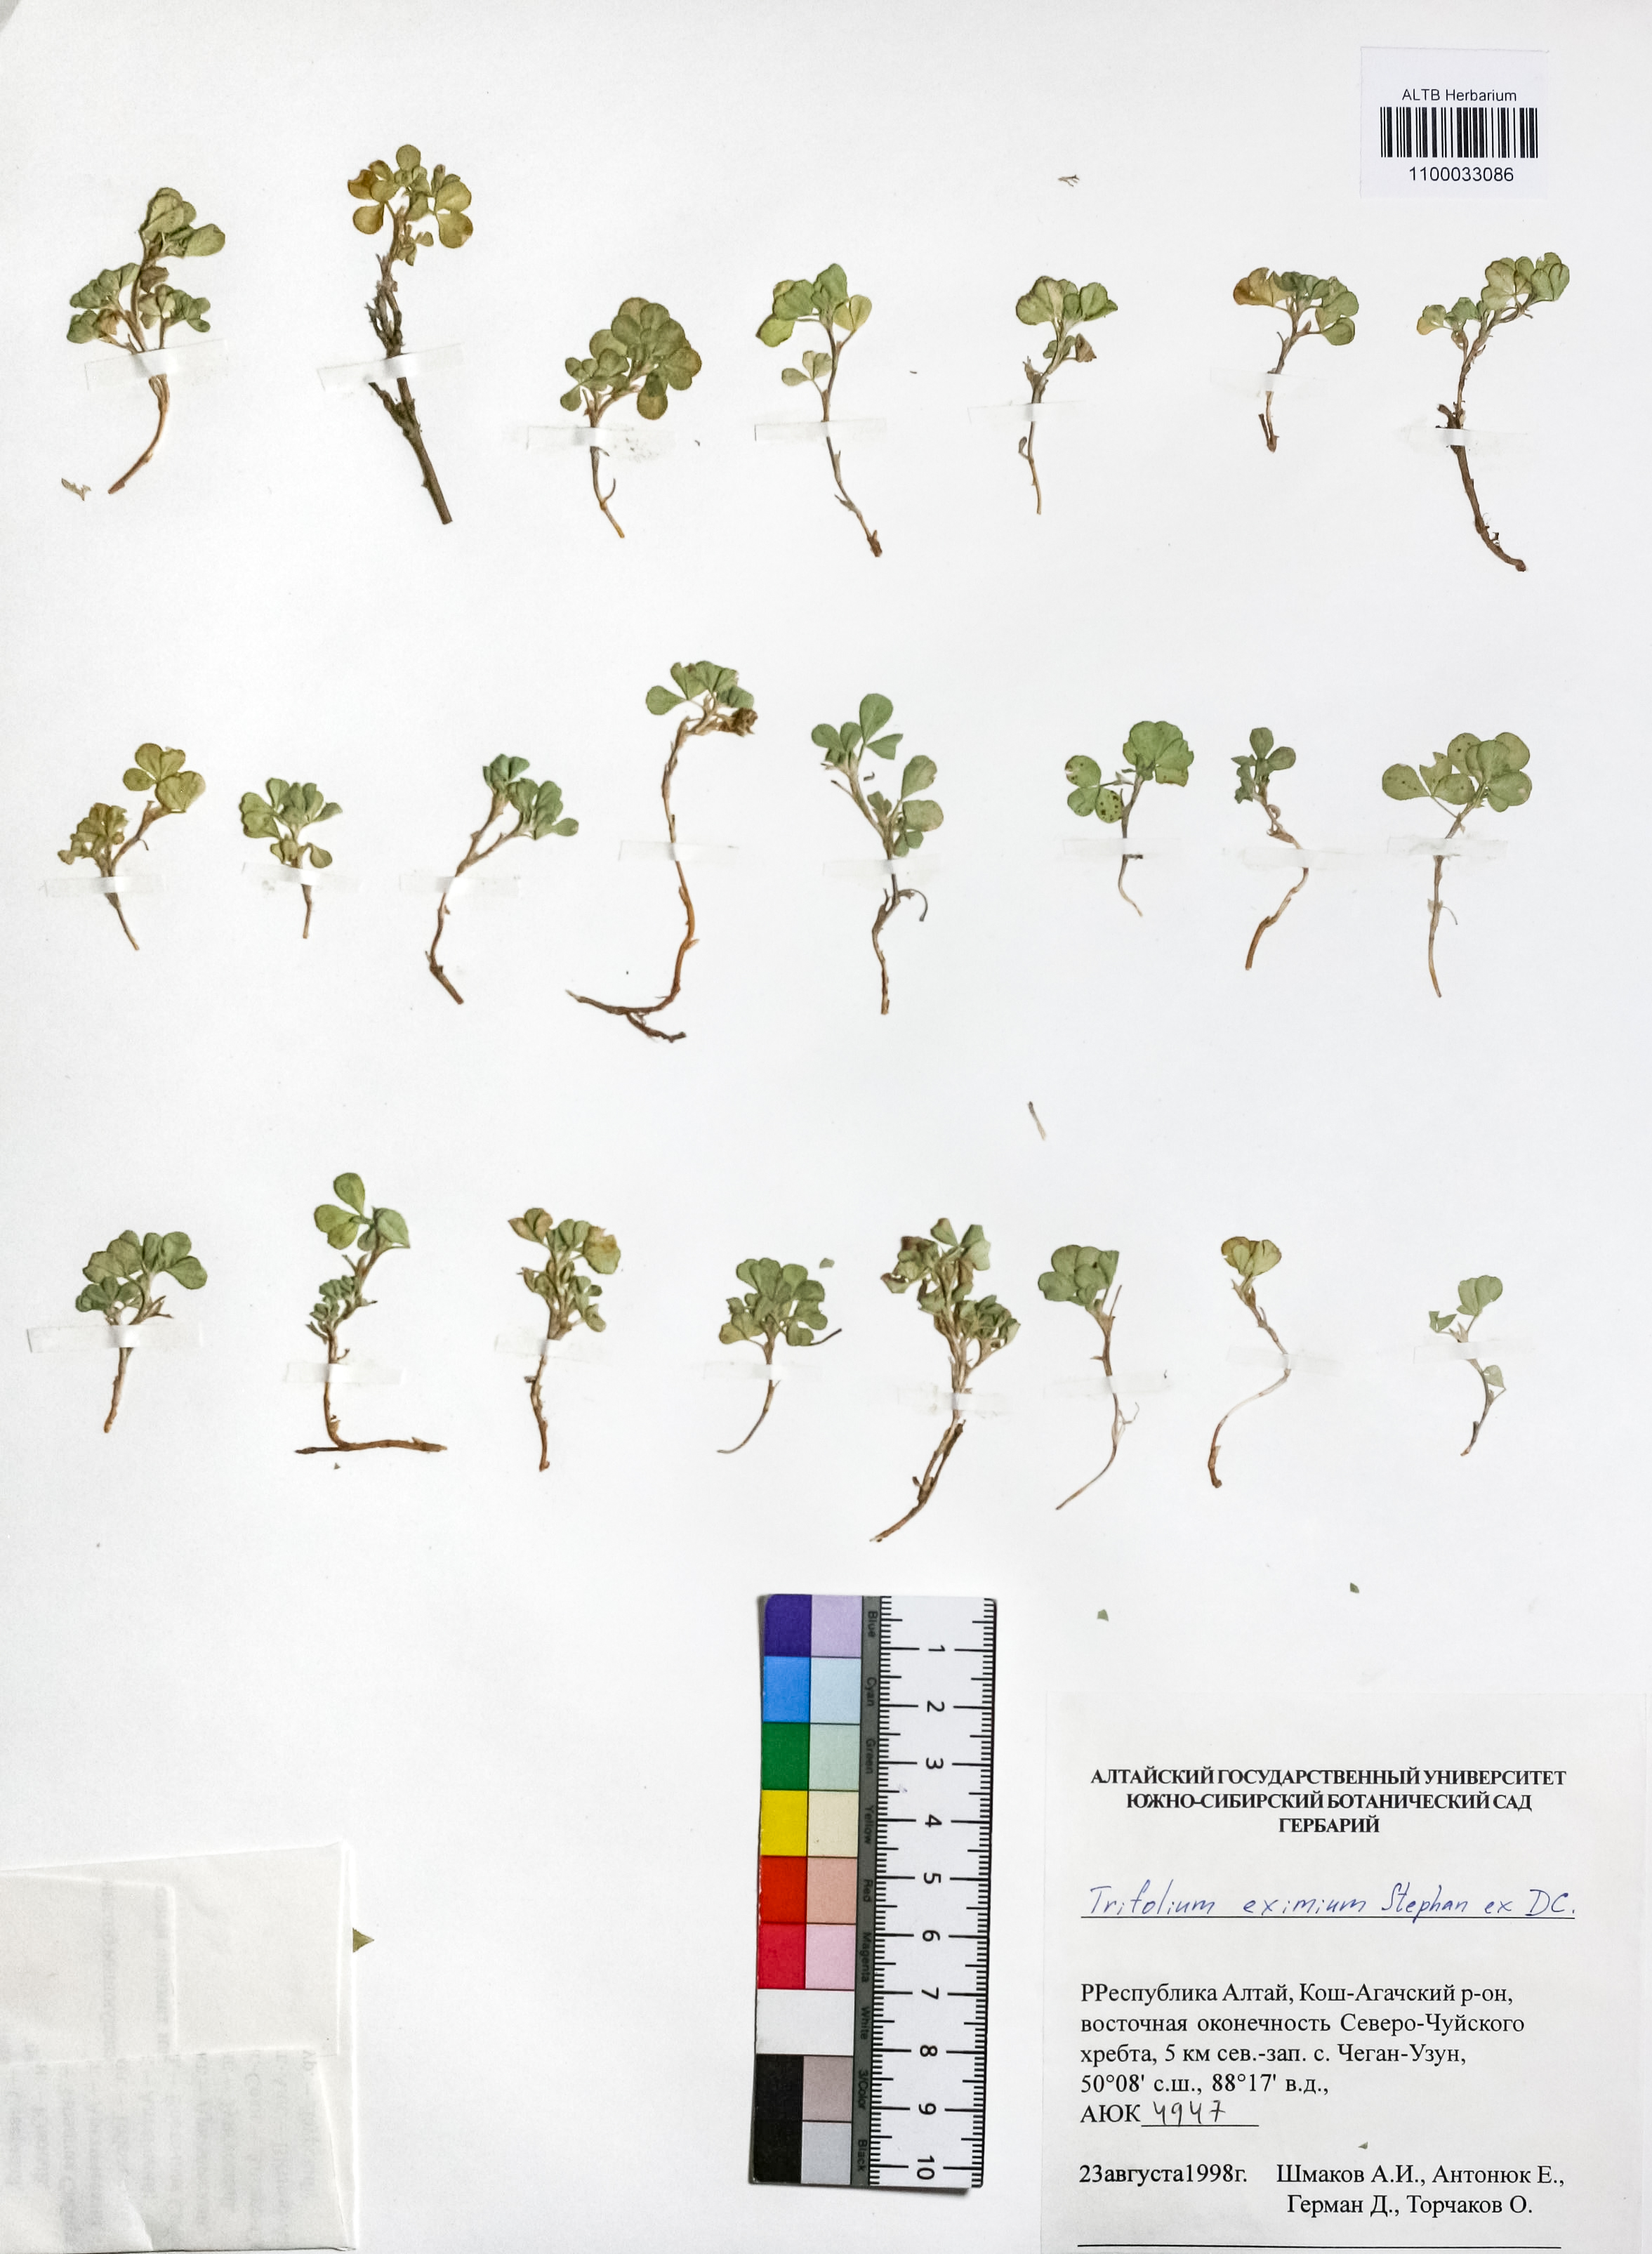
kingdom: Plantae
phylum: Tracheophyta
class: Magnoliopsida
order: Fabales
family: Fabaceae
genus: Trifolium
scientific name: Trifolium eximium
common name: Excellent clover
